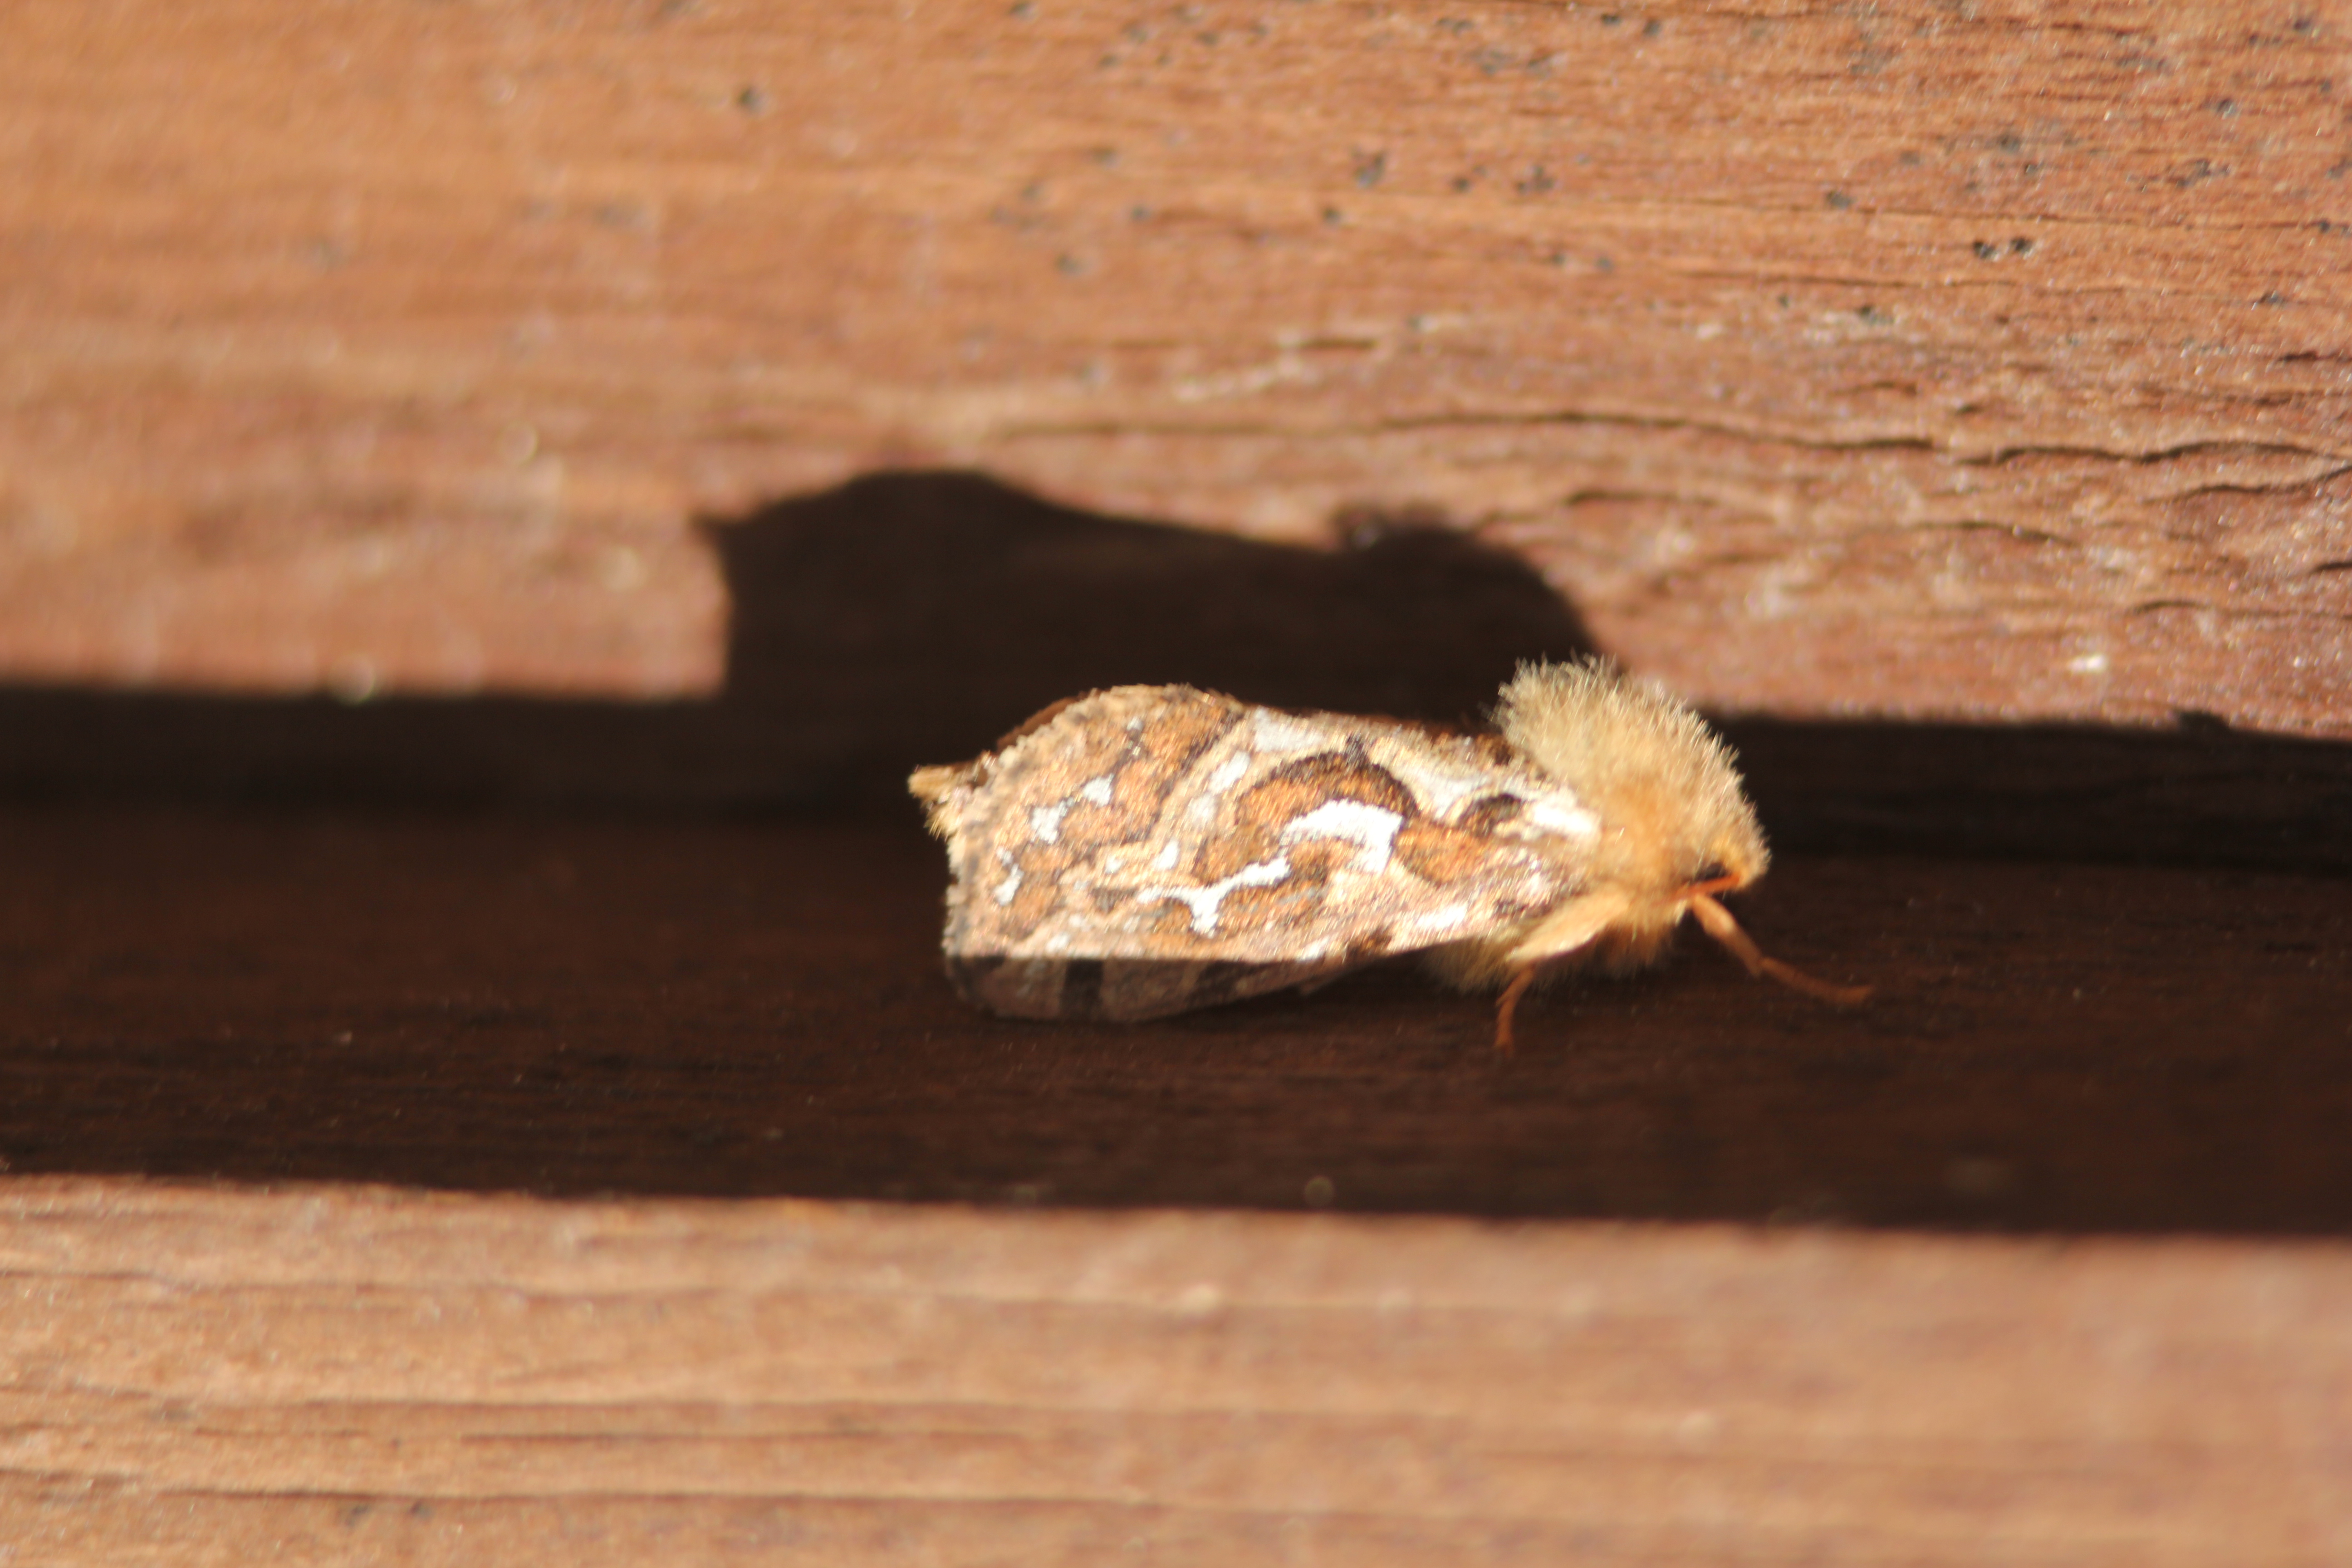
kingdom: Animalia
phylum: Arthropoda
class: Insecta
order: Lepidoptera
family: Hepialidae
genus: Korscheltellus
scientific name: Korscheltellus fusconebulosus
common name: Map-winged swift
